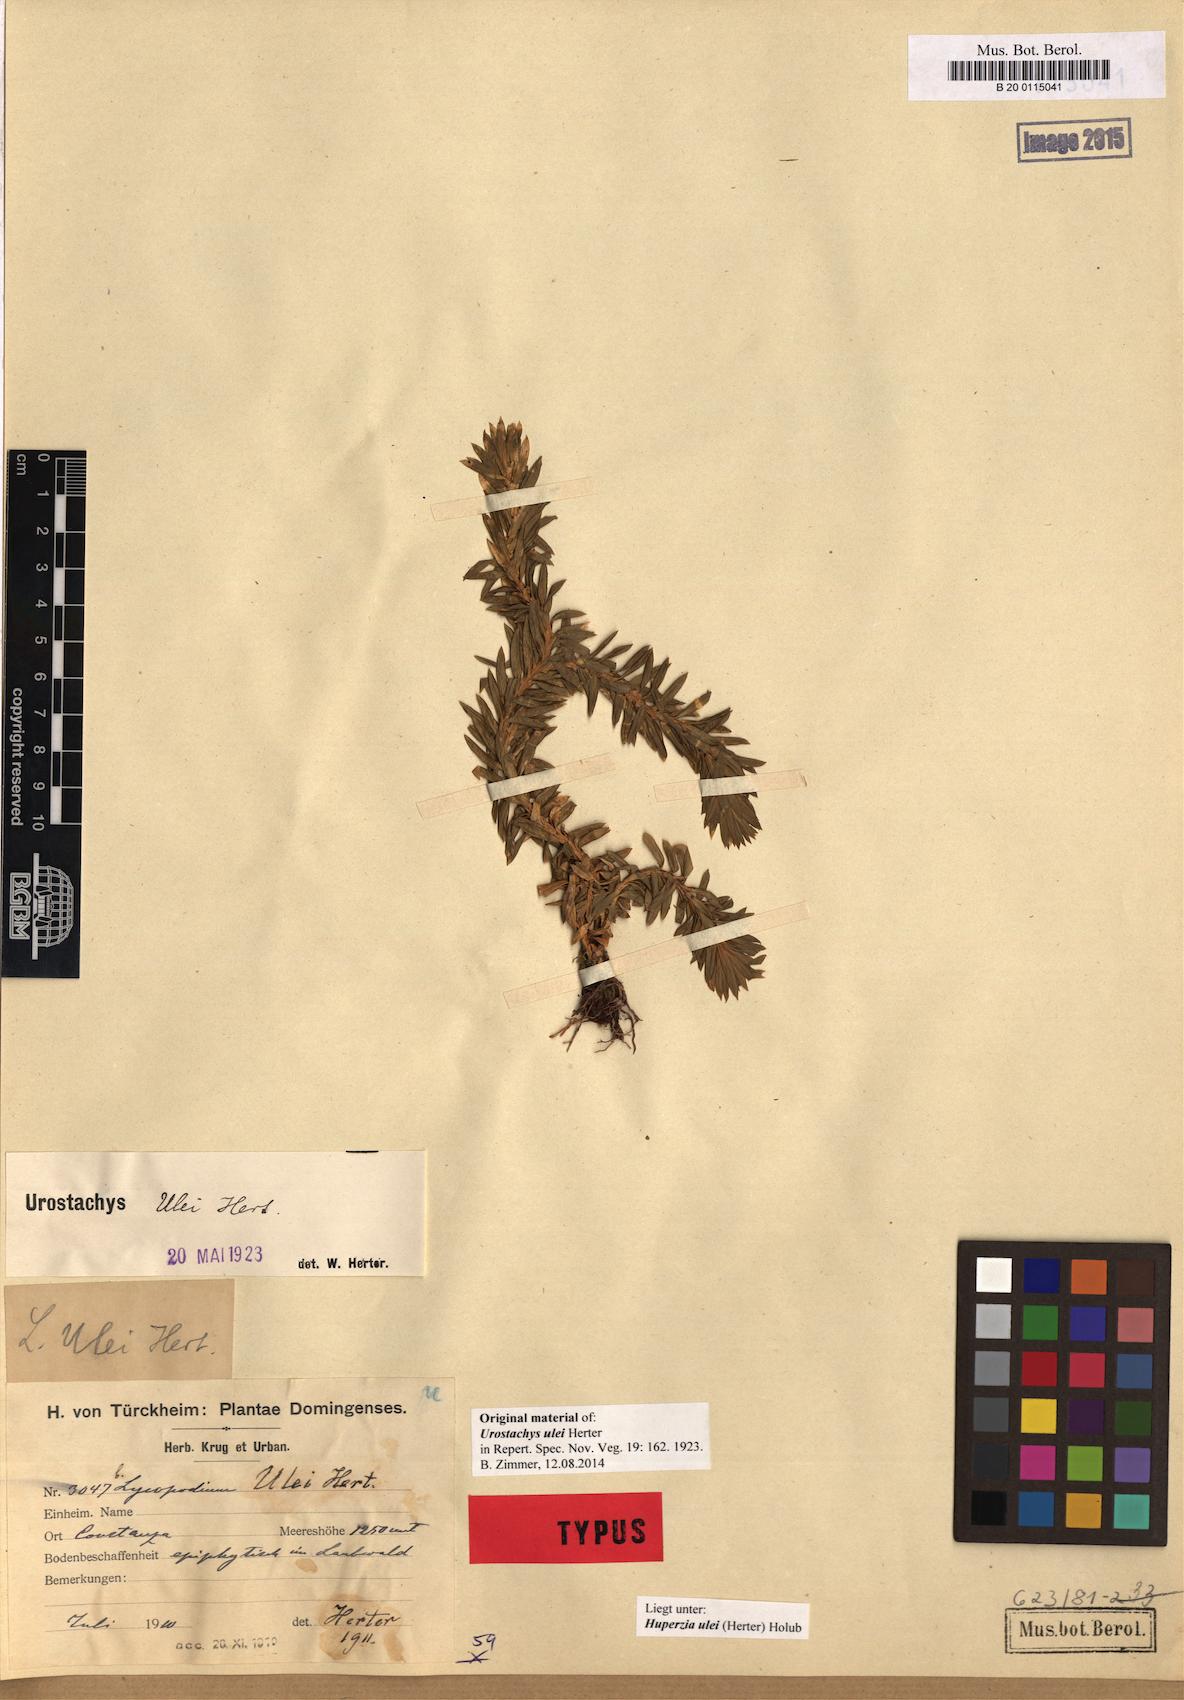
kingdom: Plantae
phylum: Tracheophyta
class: Lycopodiopsida
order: Lycopodiales
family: Lycopodiaceae
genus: Phlegmariurus
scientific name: Phlegmariurus sellowianus
